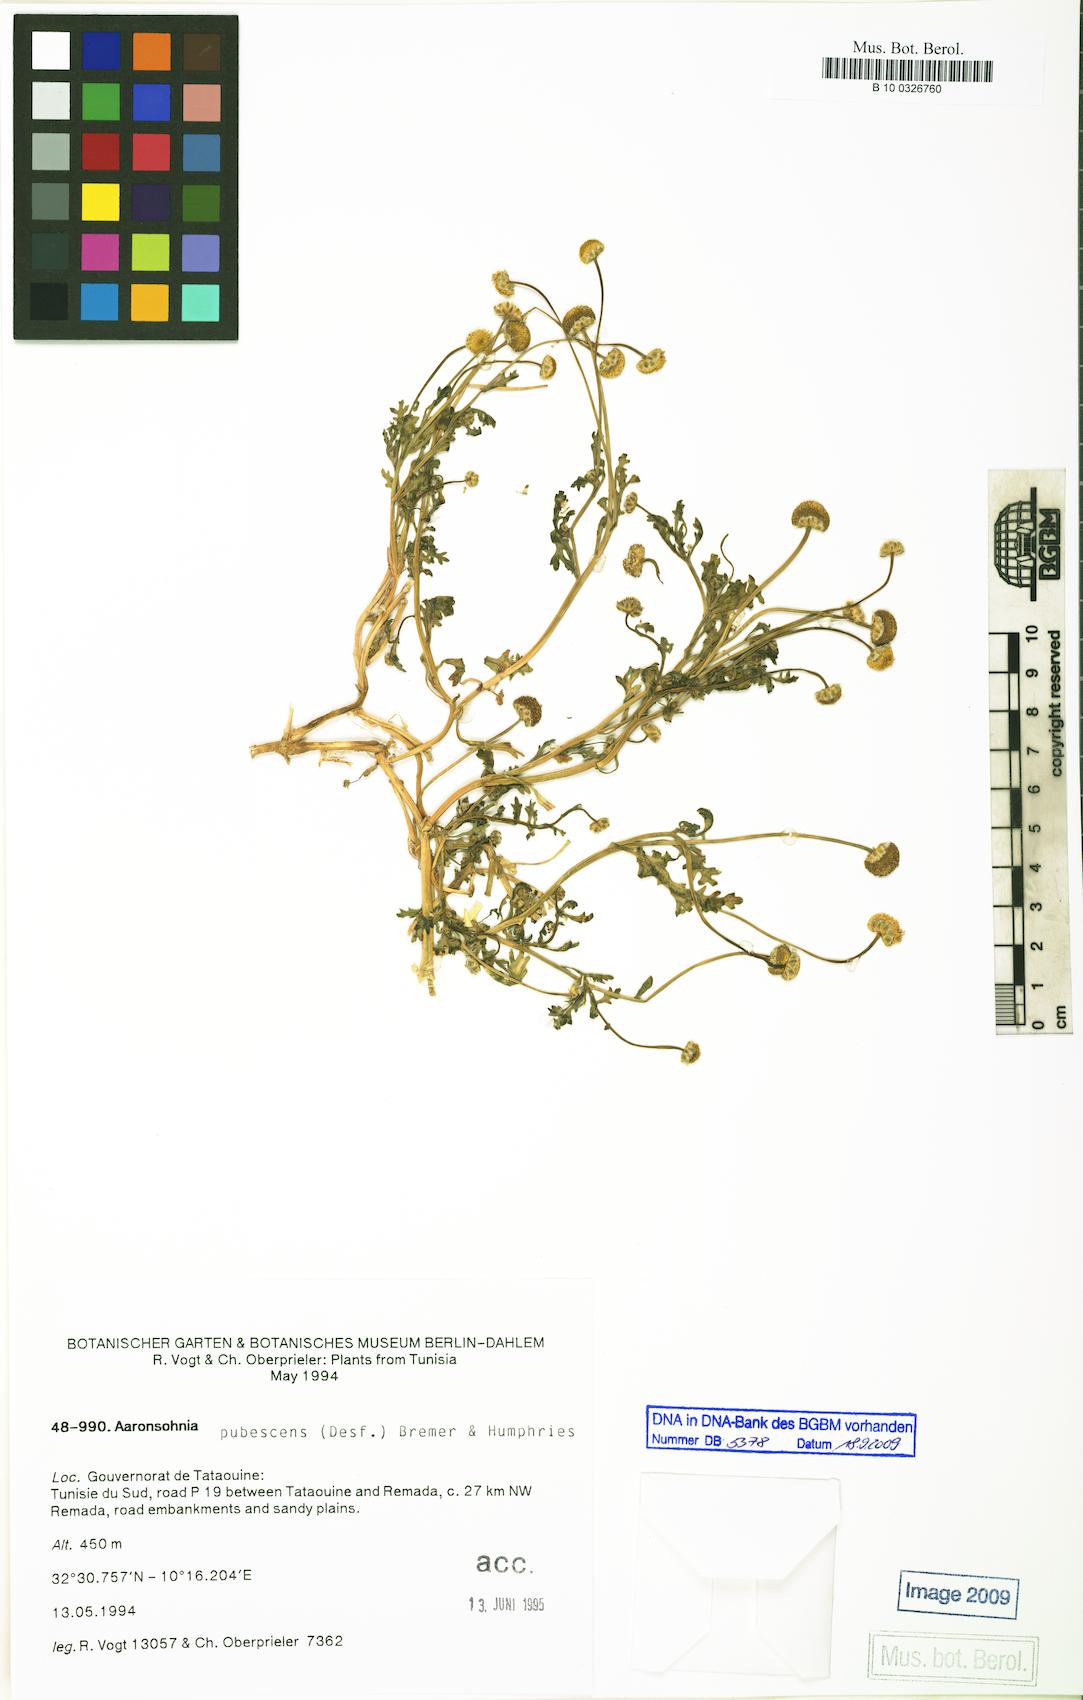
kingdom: Plantae
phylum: Tracheophyta
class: Magnoliopsida
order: Asterales
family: Asteraceae
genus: Otoglyphis
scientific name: Otoglyphis pubescens
